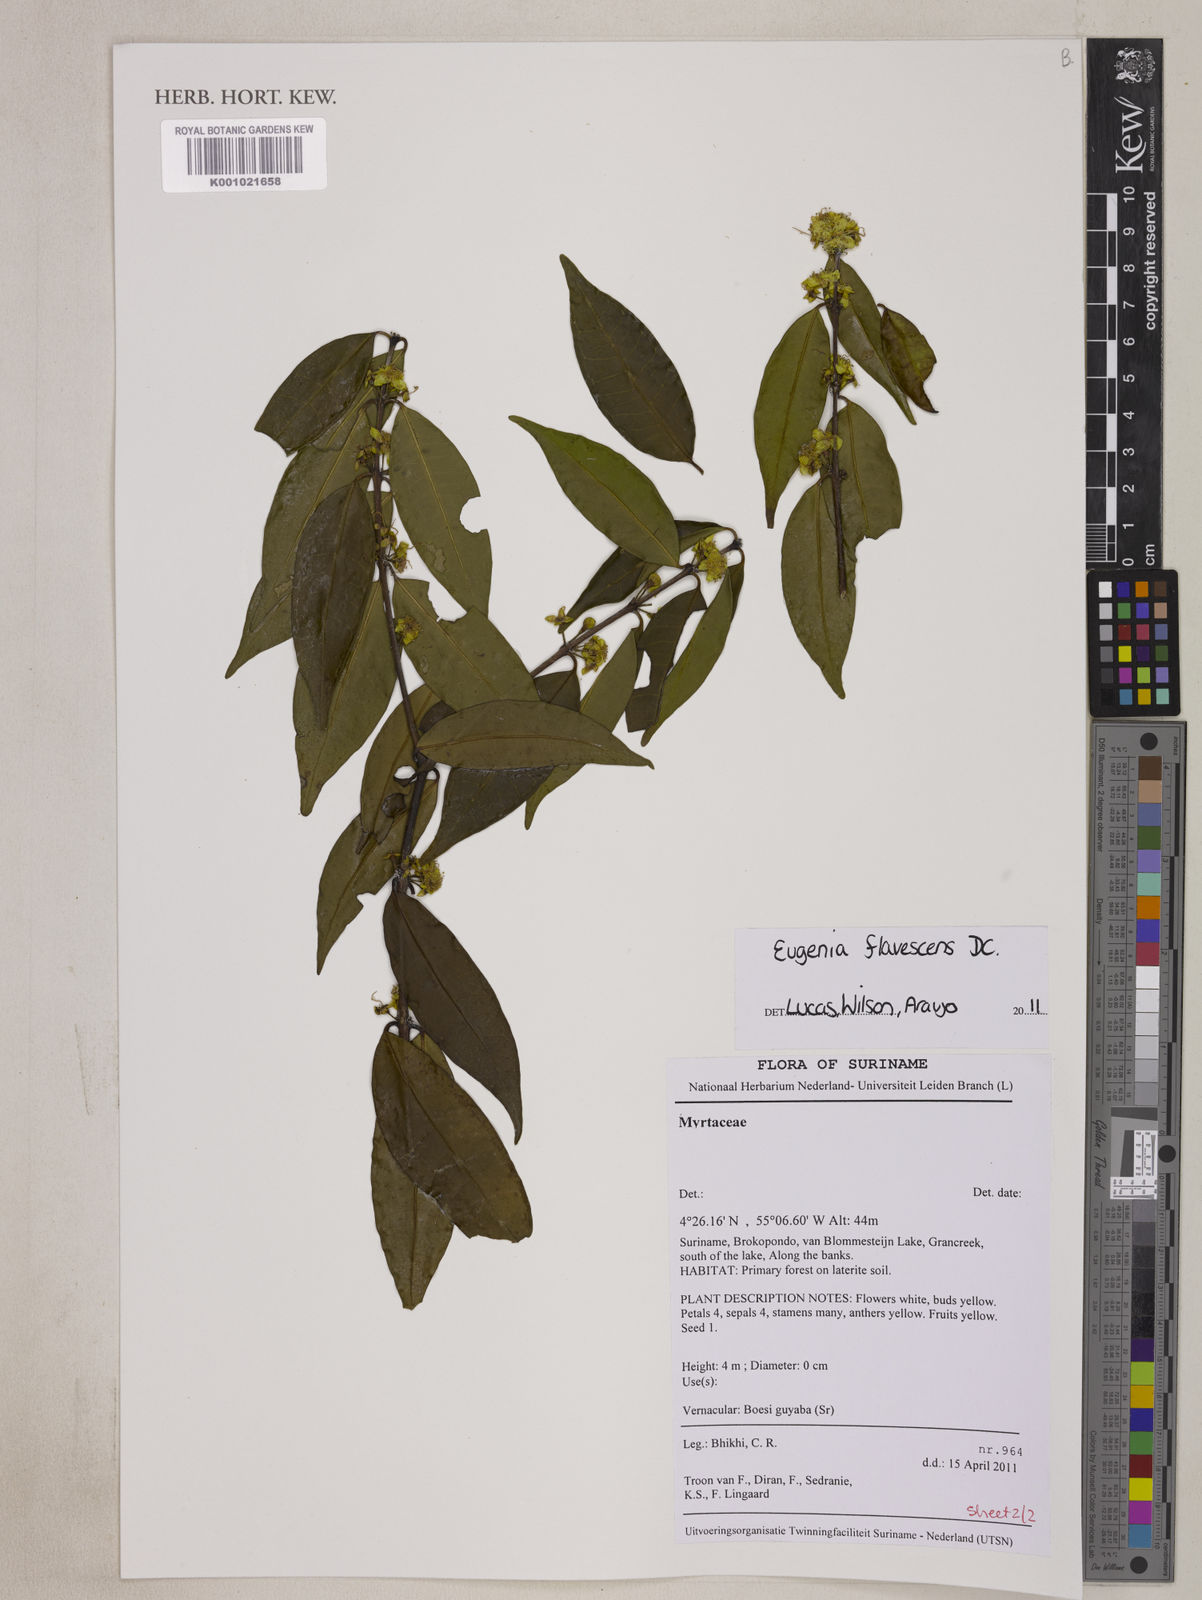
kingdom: Plantae
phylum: Tracheophyta
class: Magnoliopsida
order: Myrtales
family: Myrtaceae
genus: Eugenia
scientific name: Eugenia flavescens
